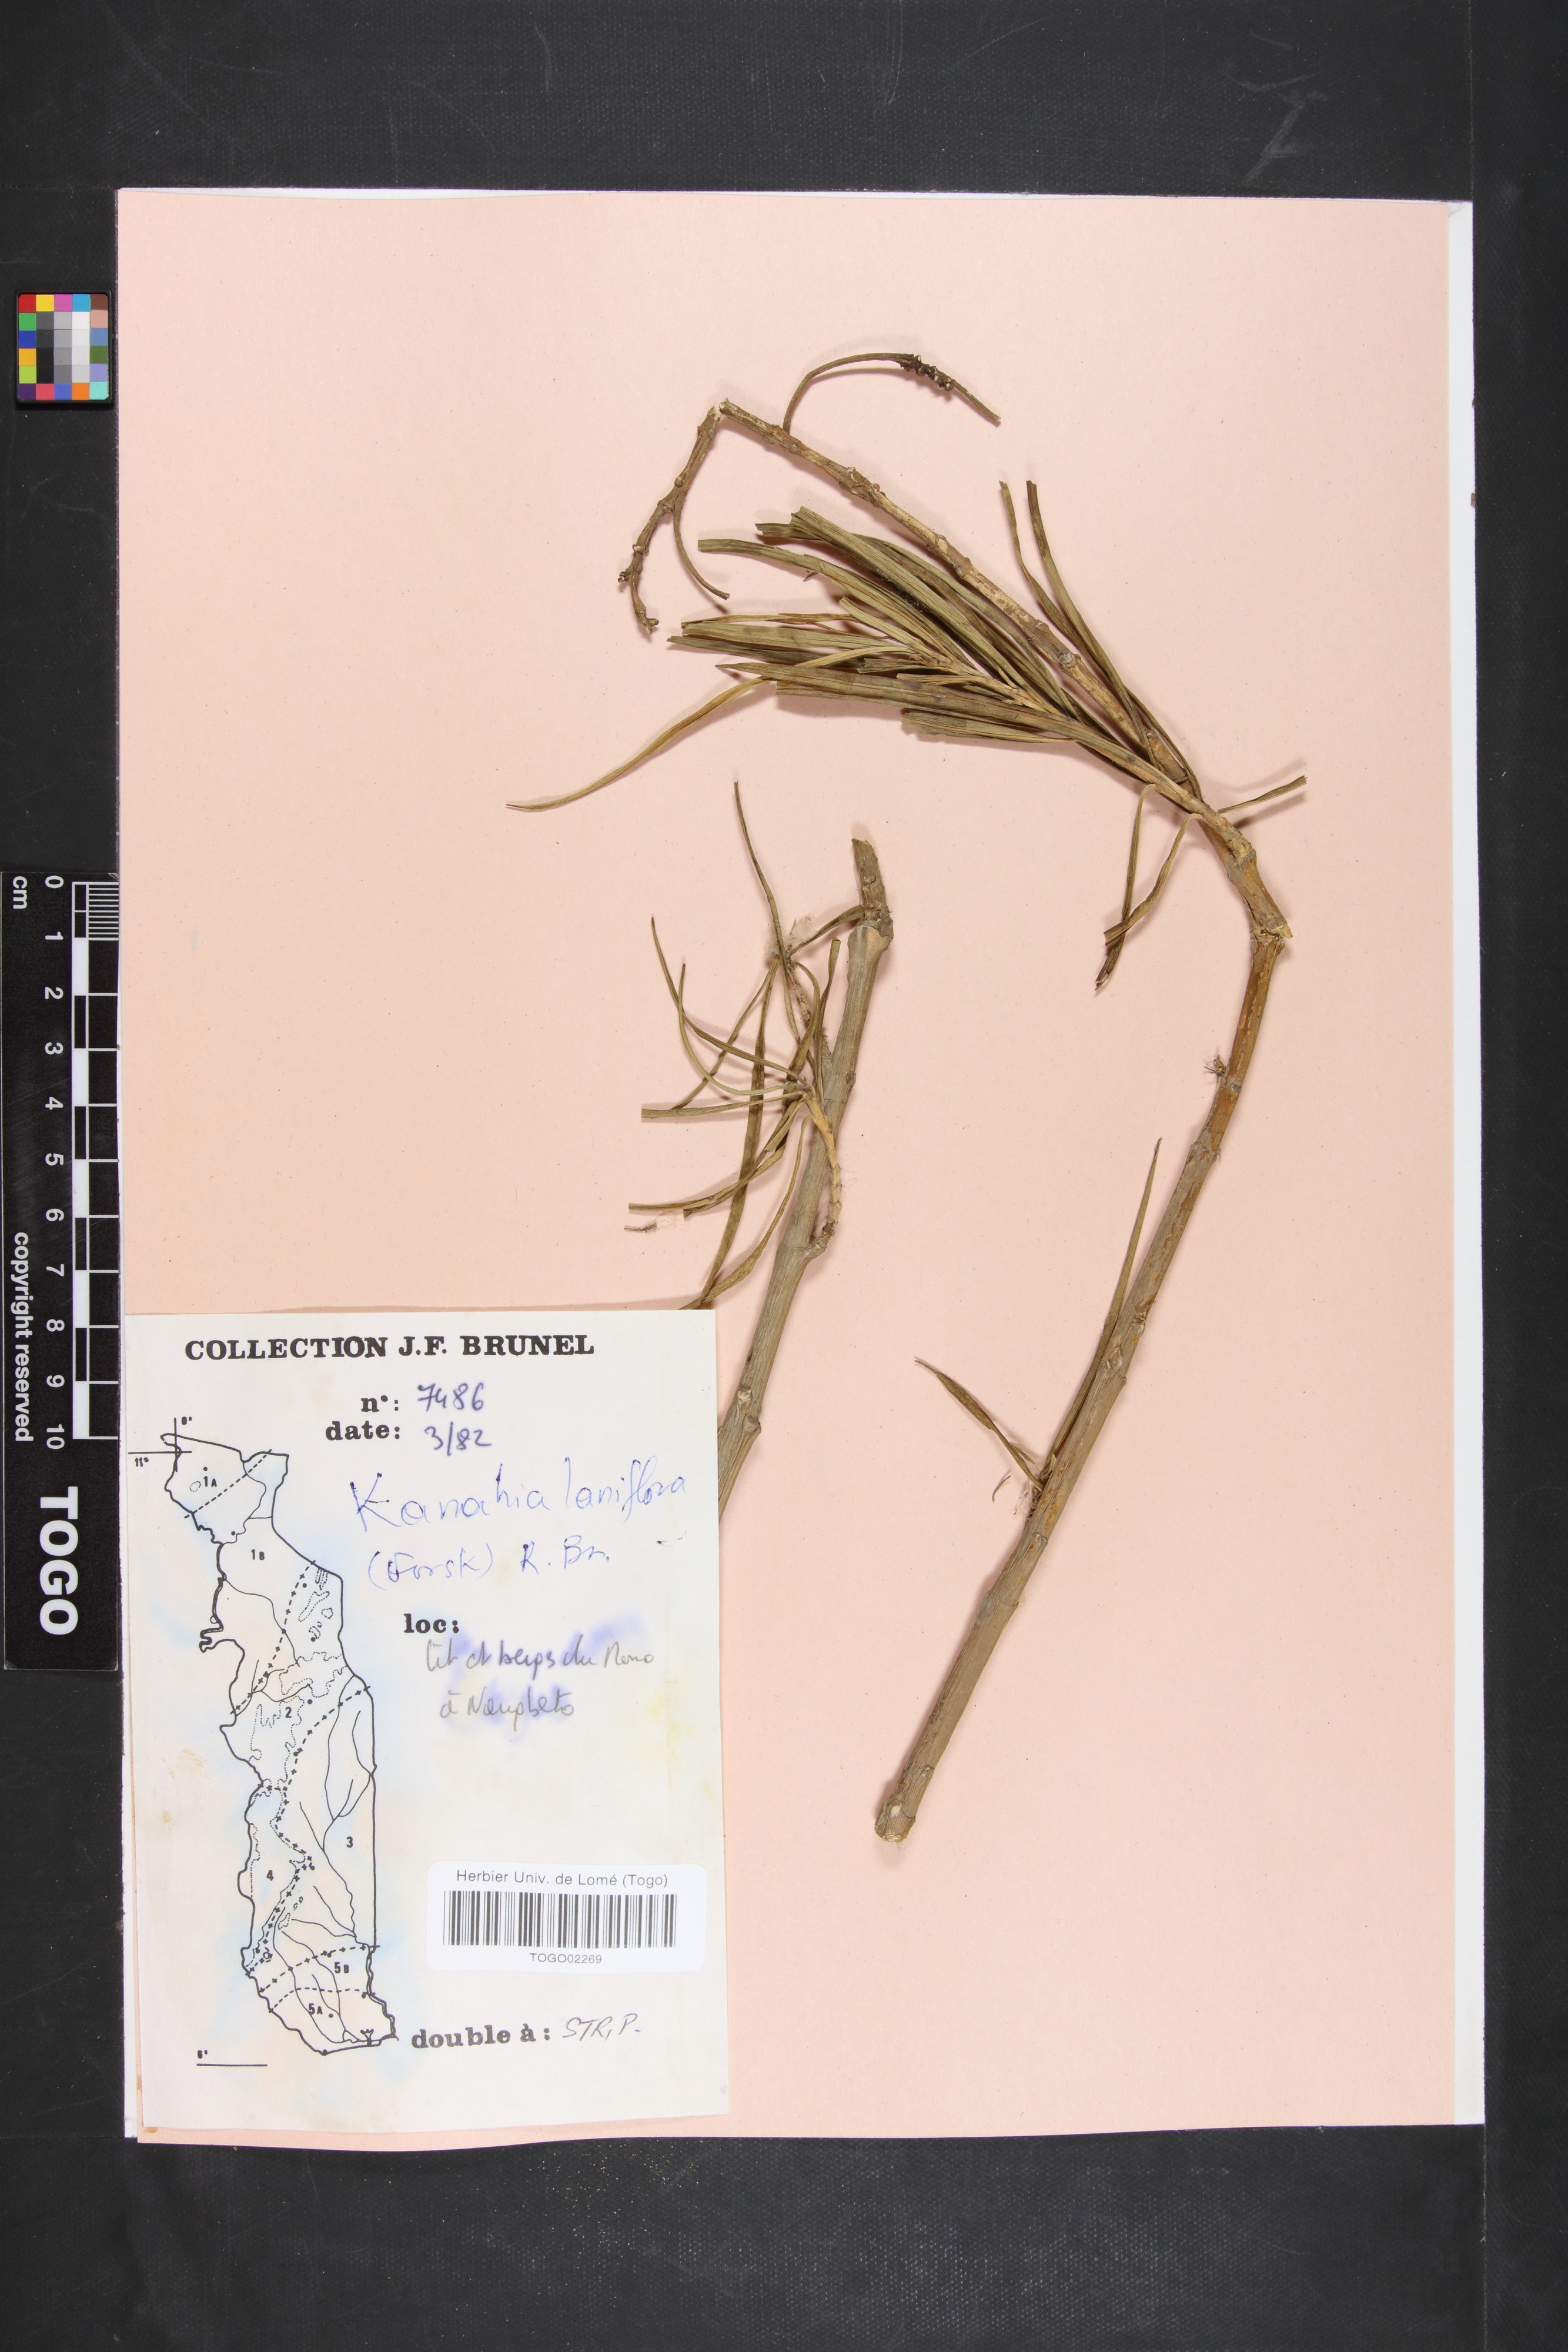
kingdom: Plantae
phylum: Tracheophyta
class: Magnoliopsida
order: Gentianales
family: Apocynaceae
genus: Kanahia
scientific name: Kanahia laniflora
